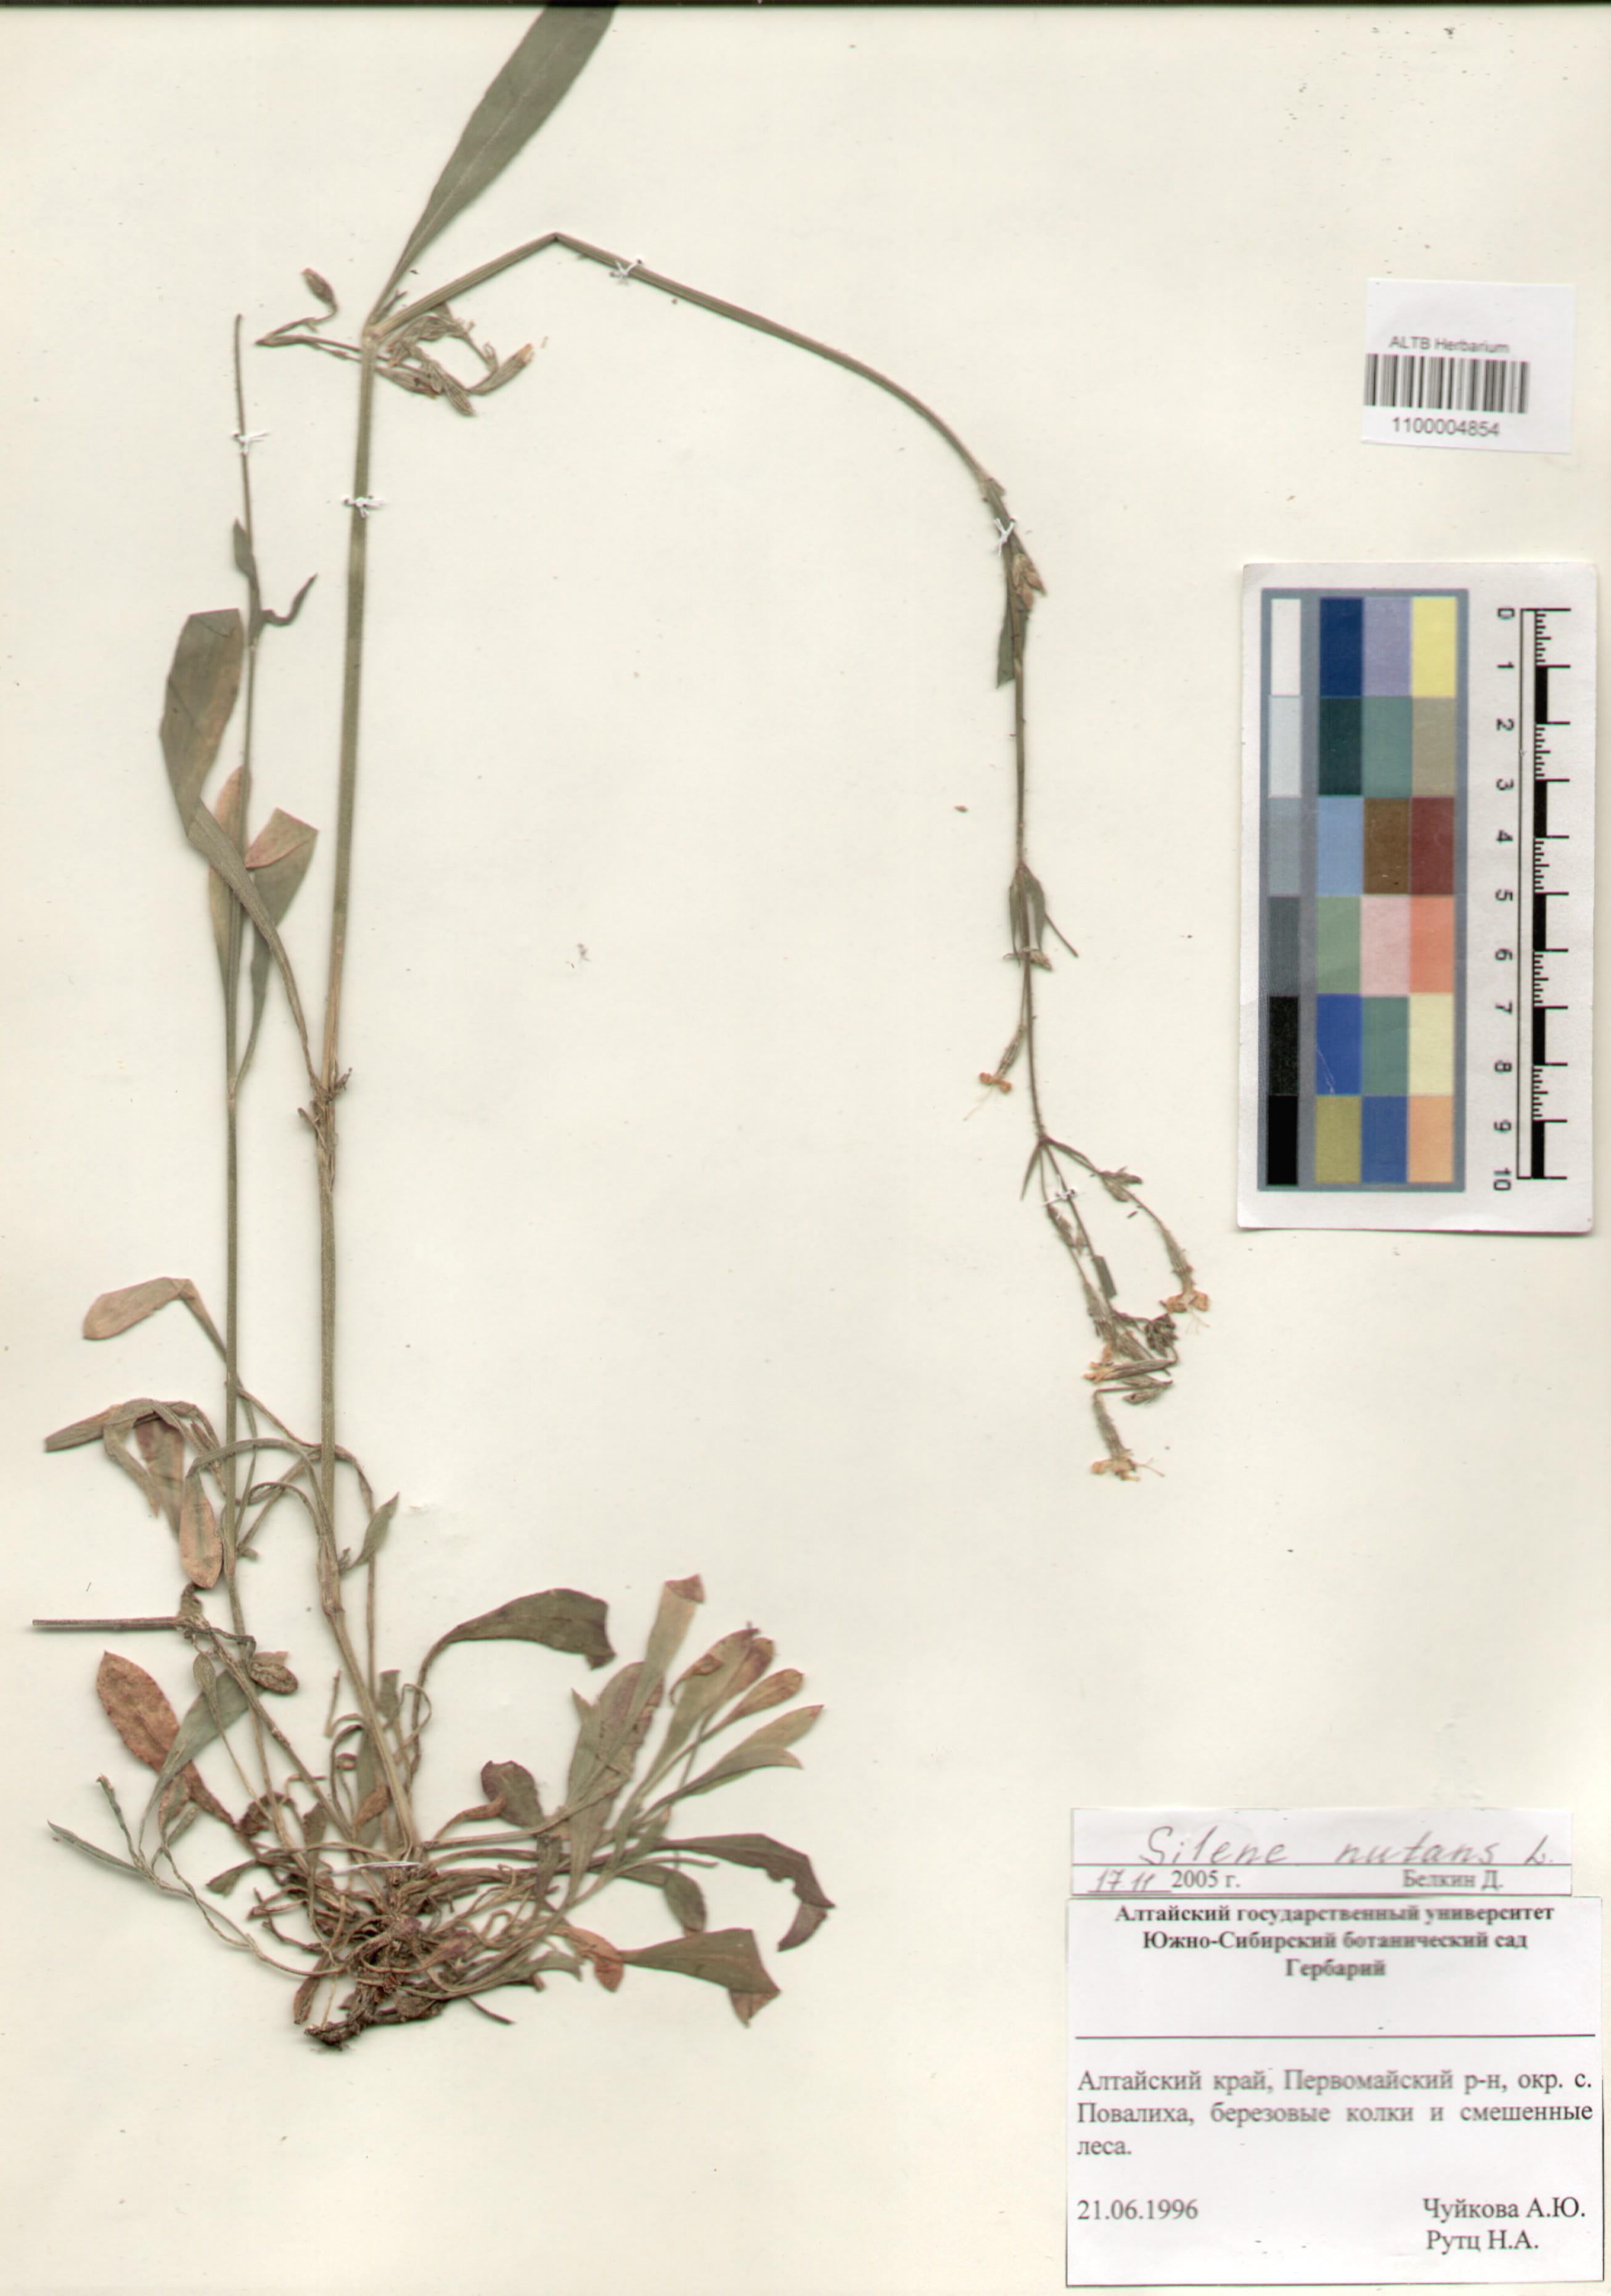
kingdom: Plantae
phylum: Tracheophyta
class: Magnoliopsida
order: Caryophyllales
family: Caryophyllaceae
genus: Silene
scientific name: Silene nutans
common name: Nottingham catchfly
